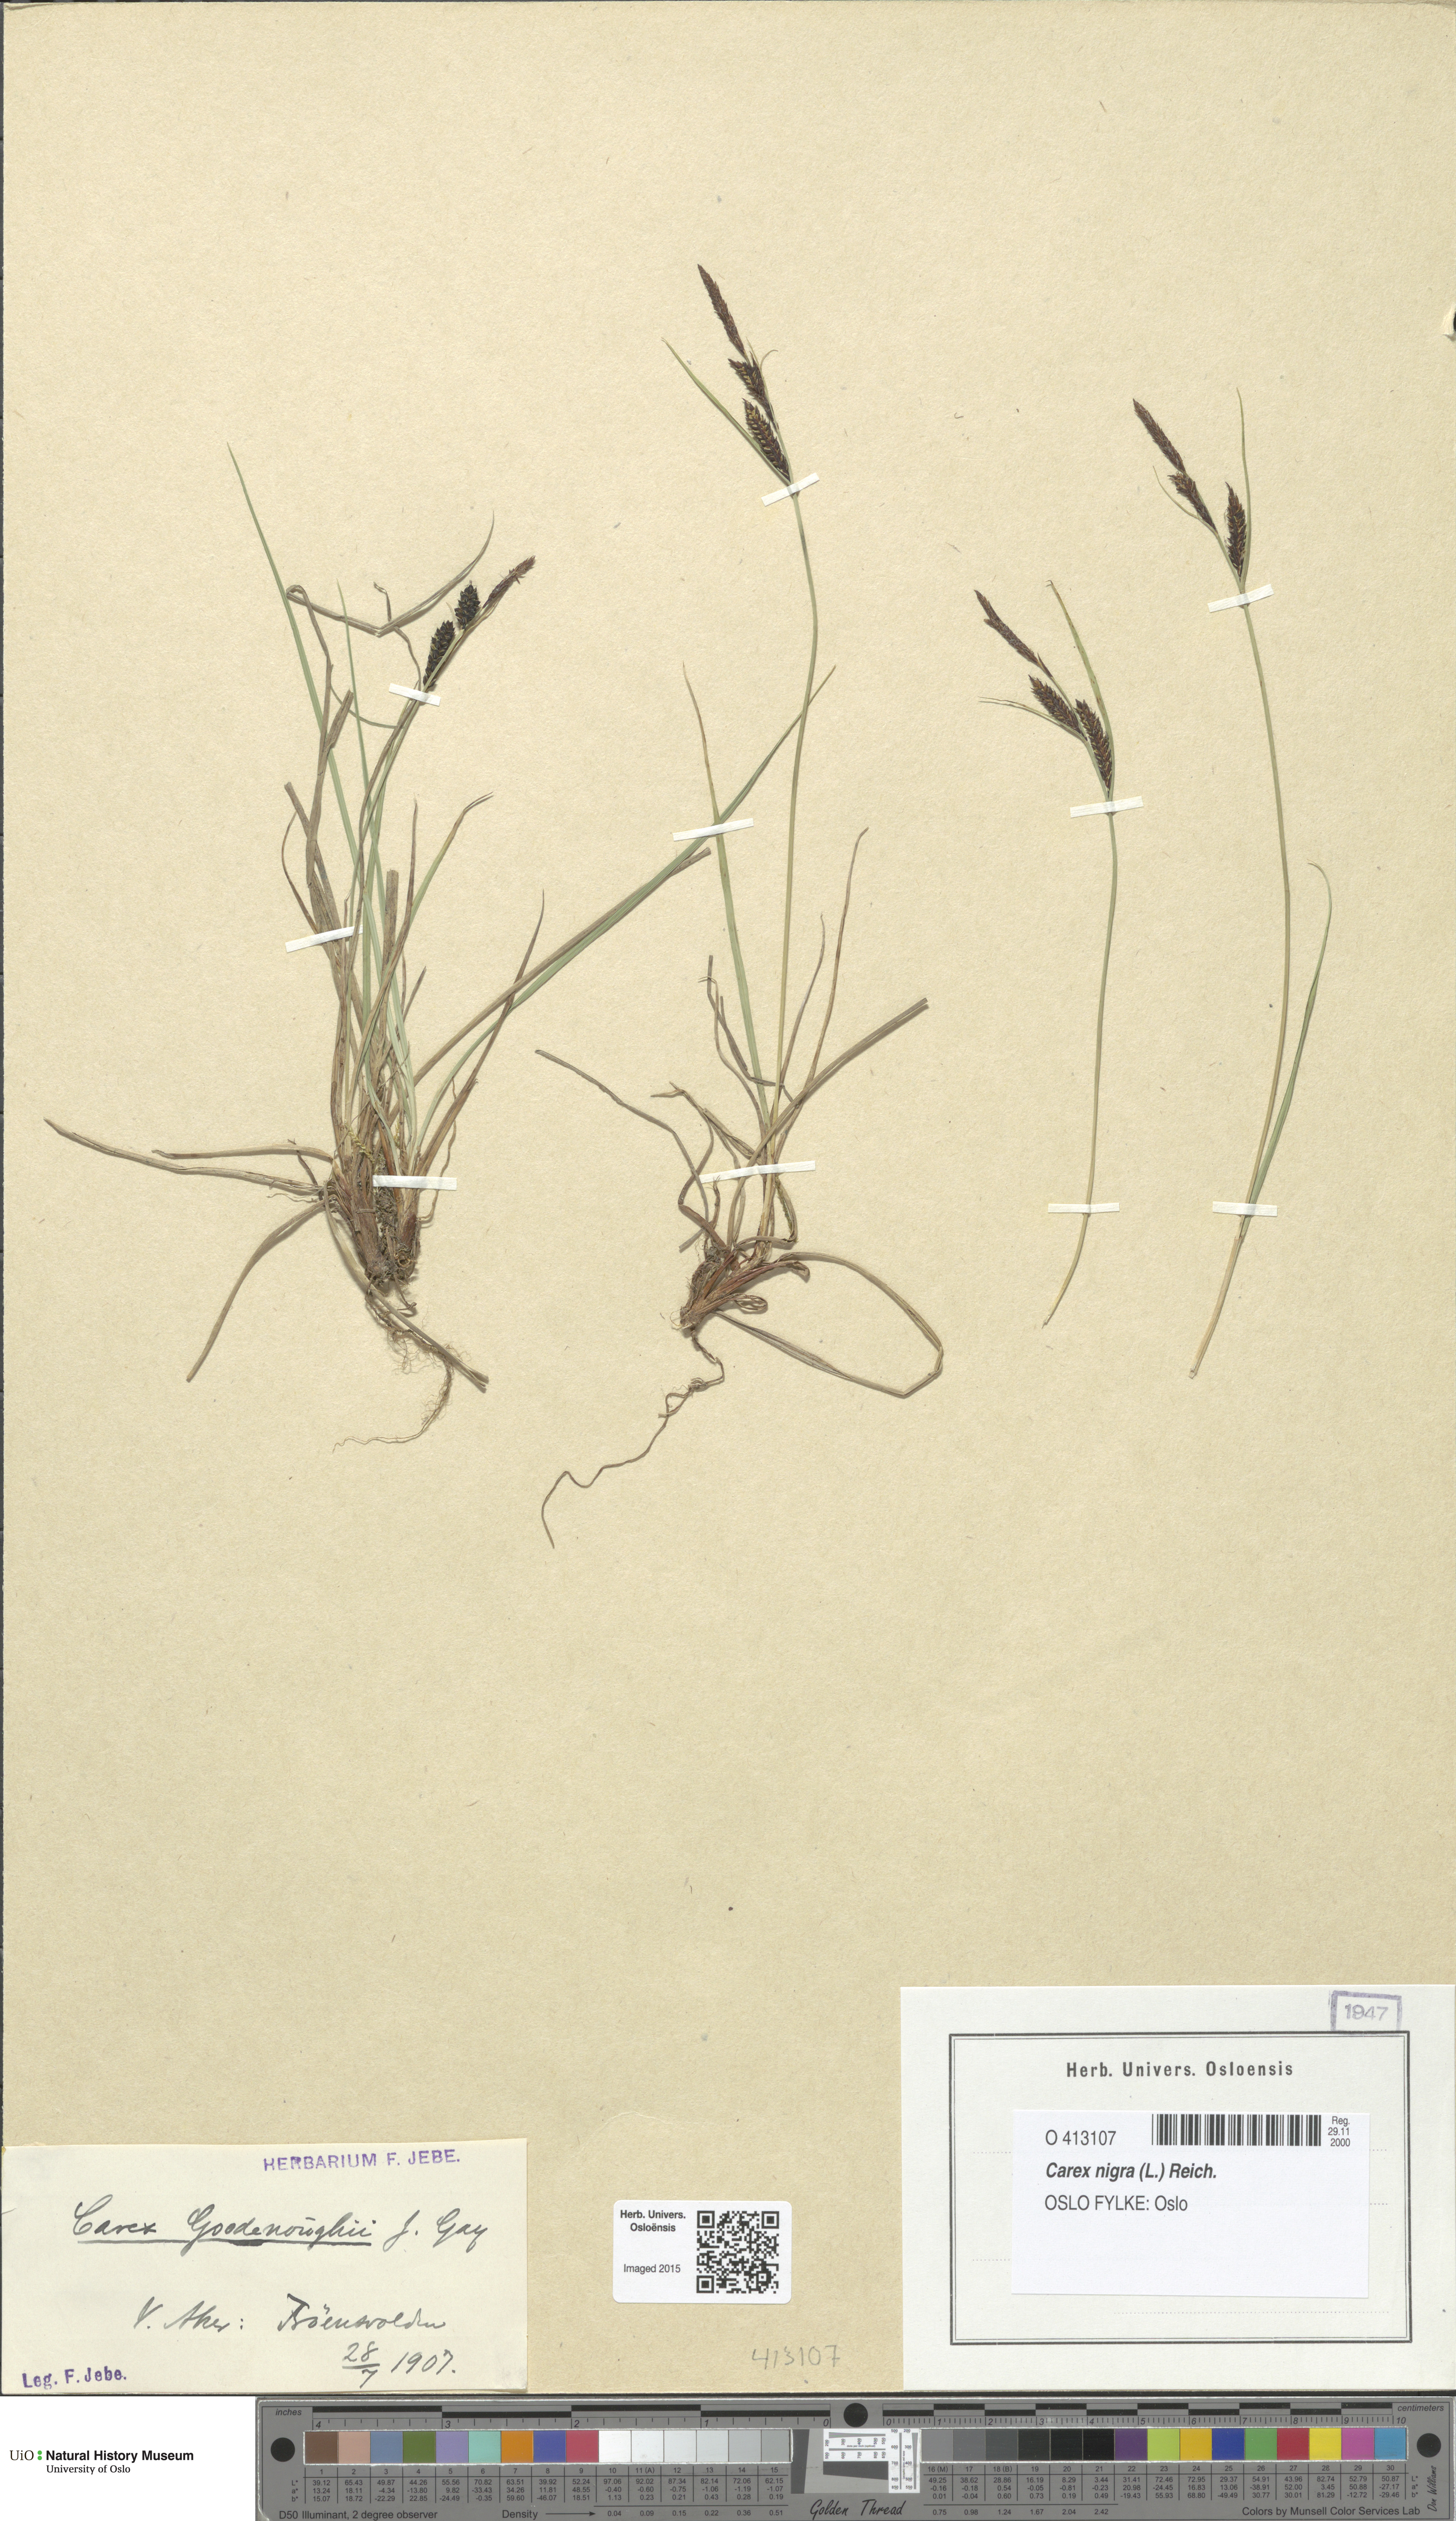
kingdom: Plantae
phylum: Tracheophyta
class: Liliopsida
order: Poales
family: Cyperaceae
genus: Carex
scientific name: Carex nigra
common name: Common sedge
